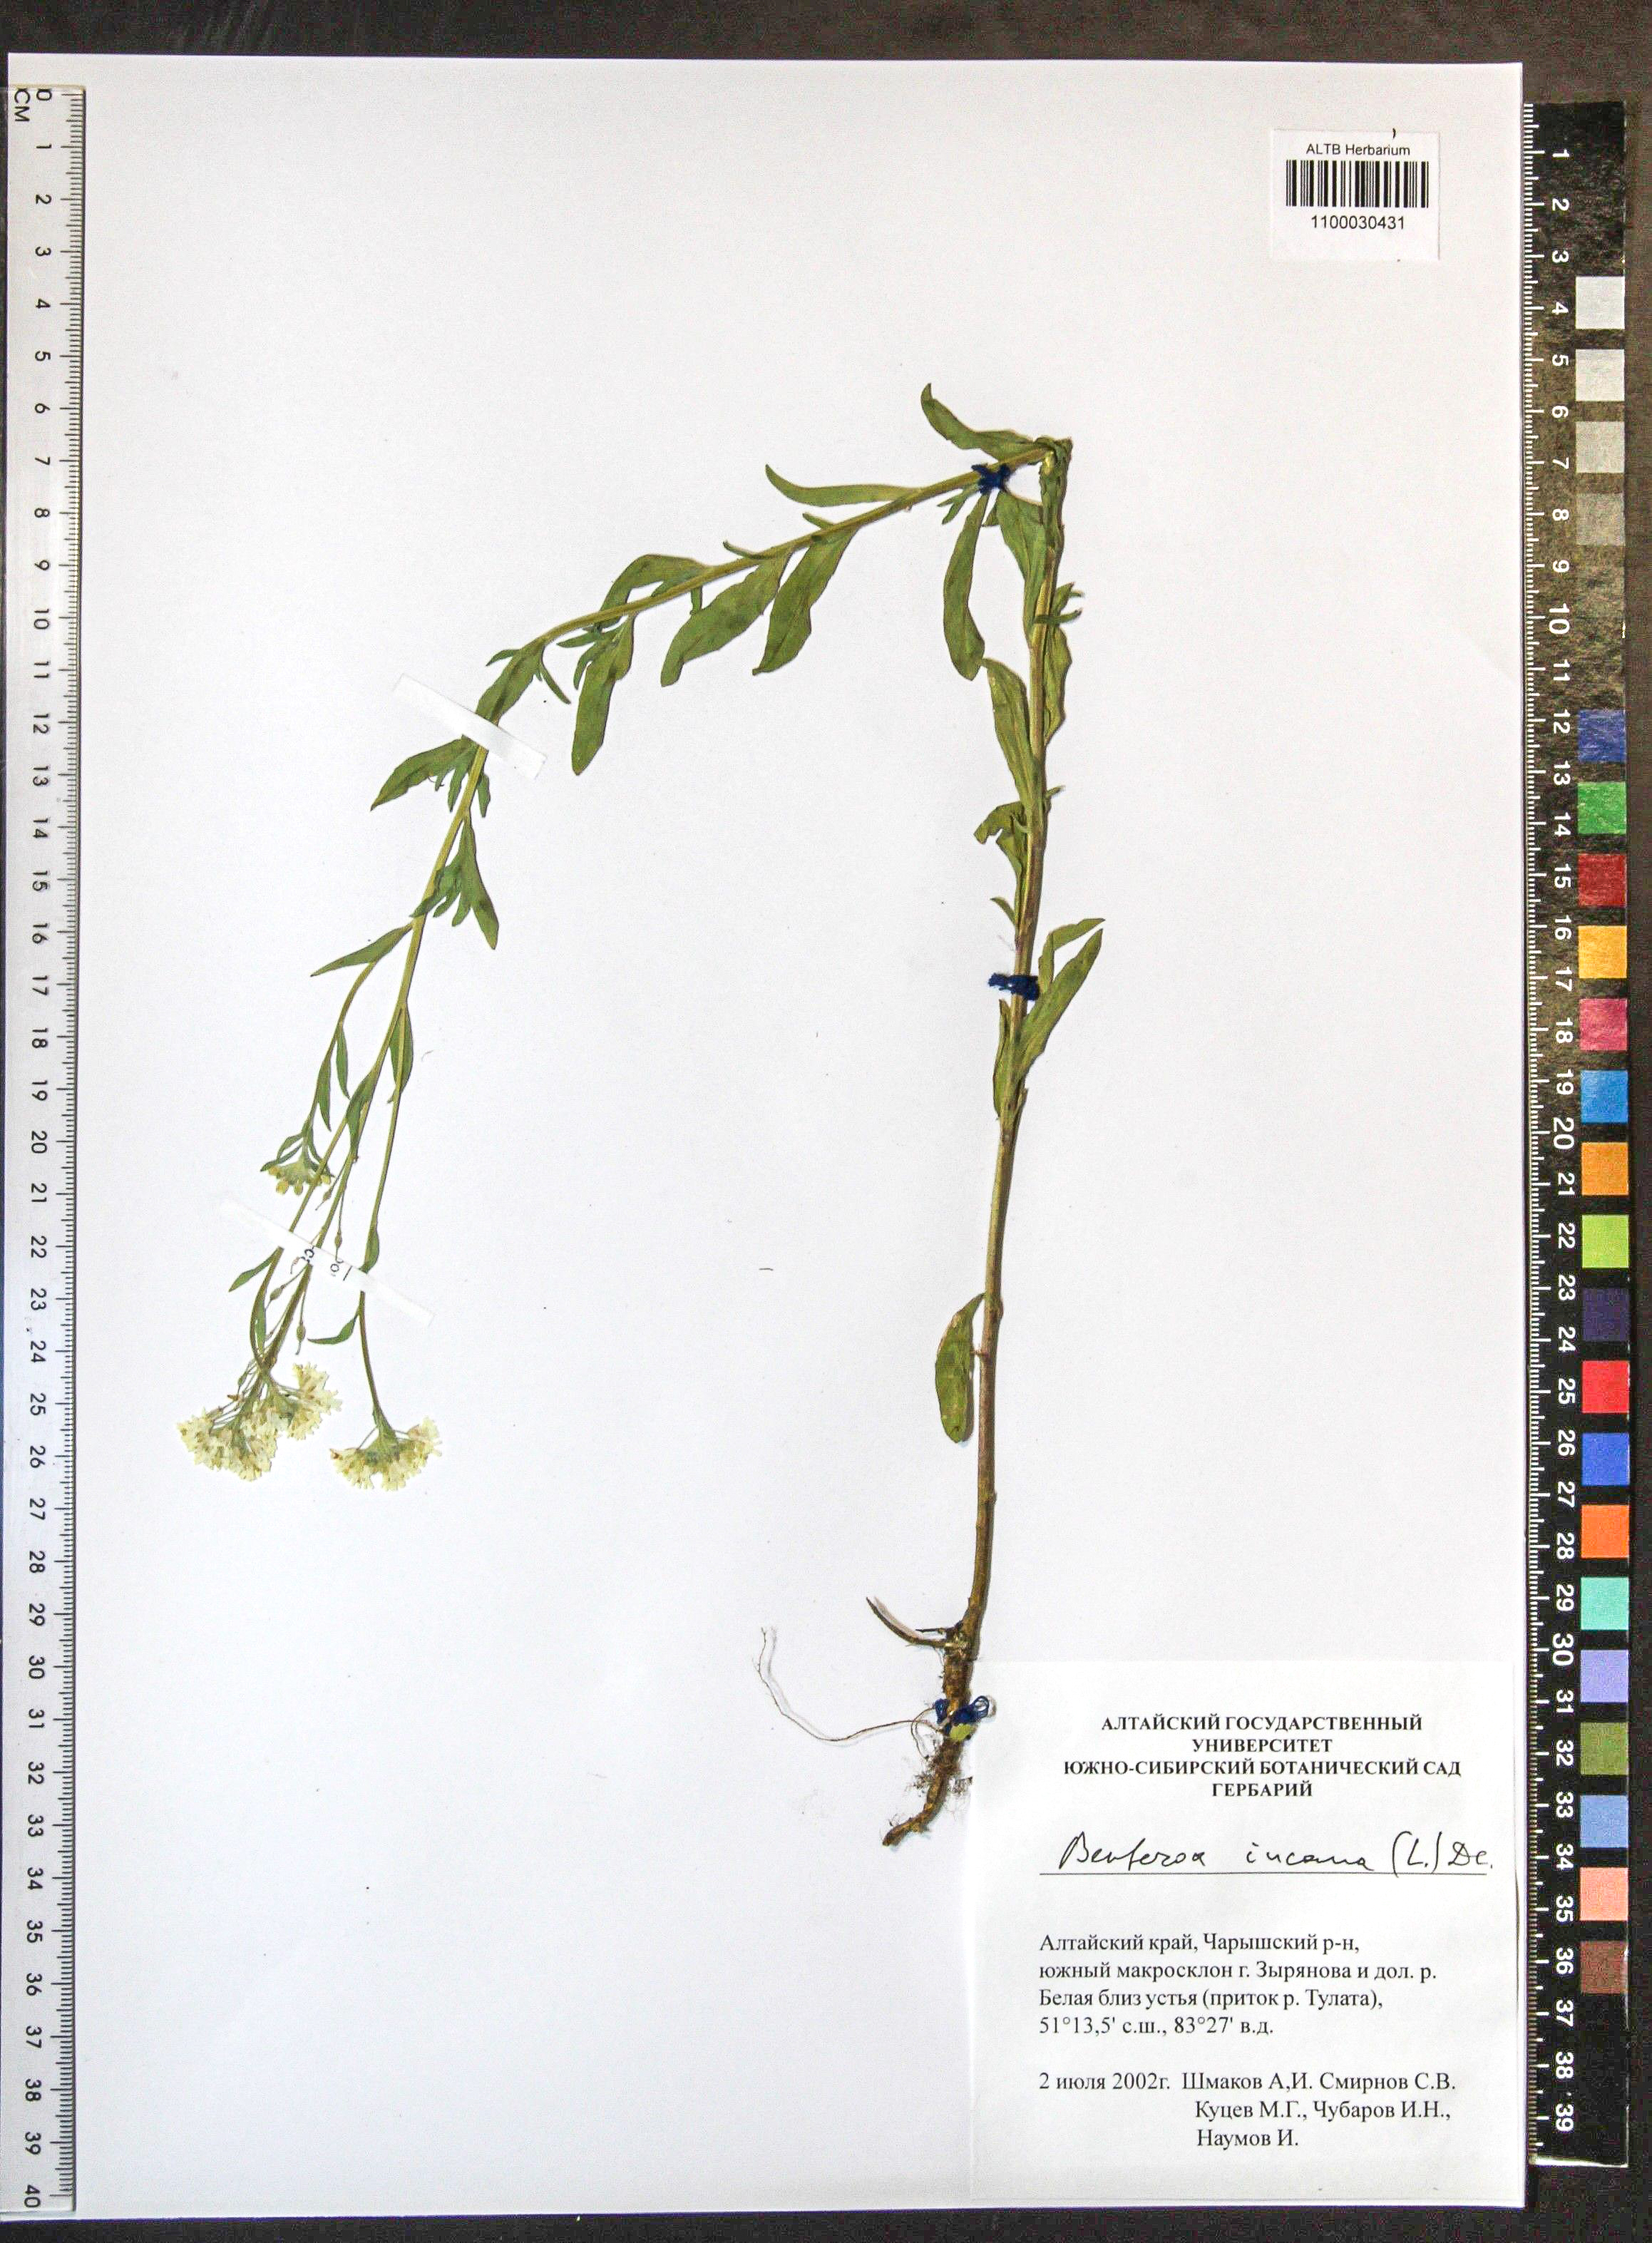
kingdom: Plantae
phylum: Tracheophyta
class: Magnoliopsida
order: Brassicales
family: Brassicaceae
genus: Berteroa
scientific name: Berteroa incana
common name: Hoary alison
